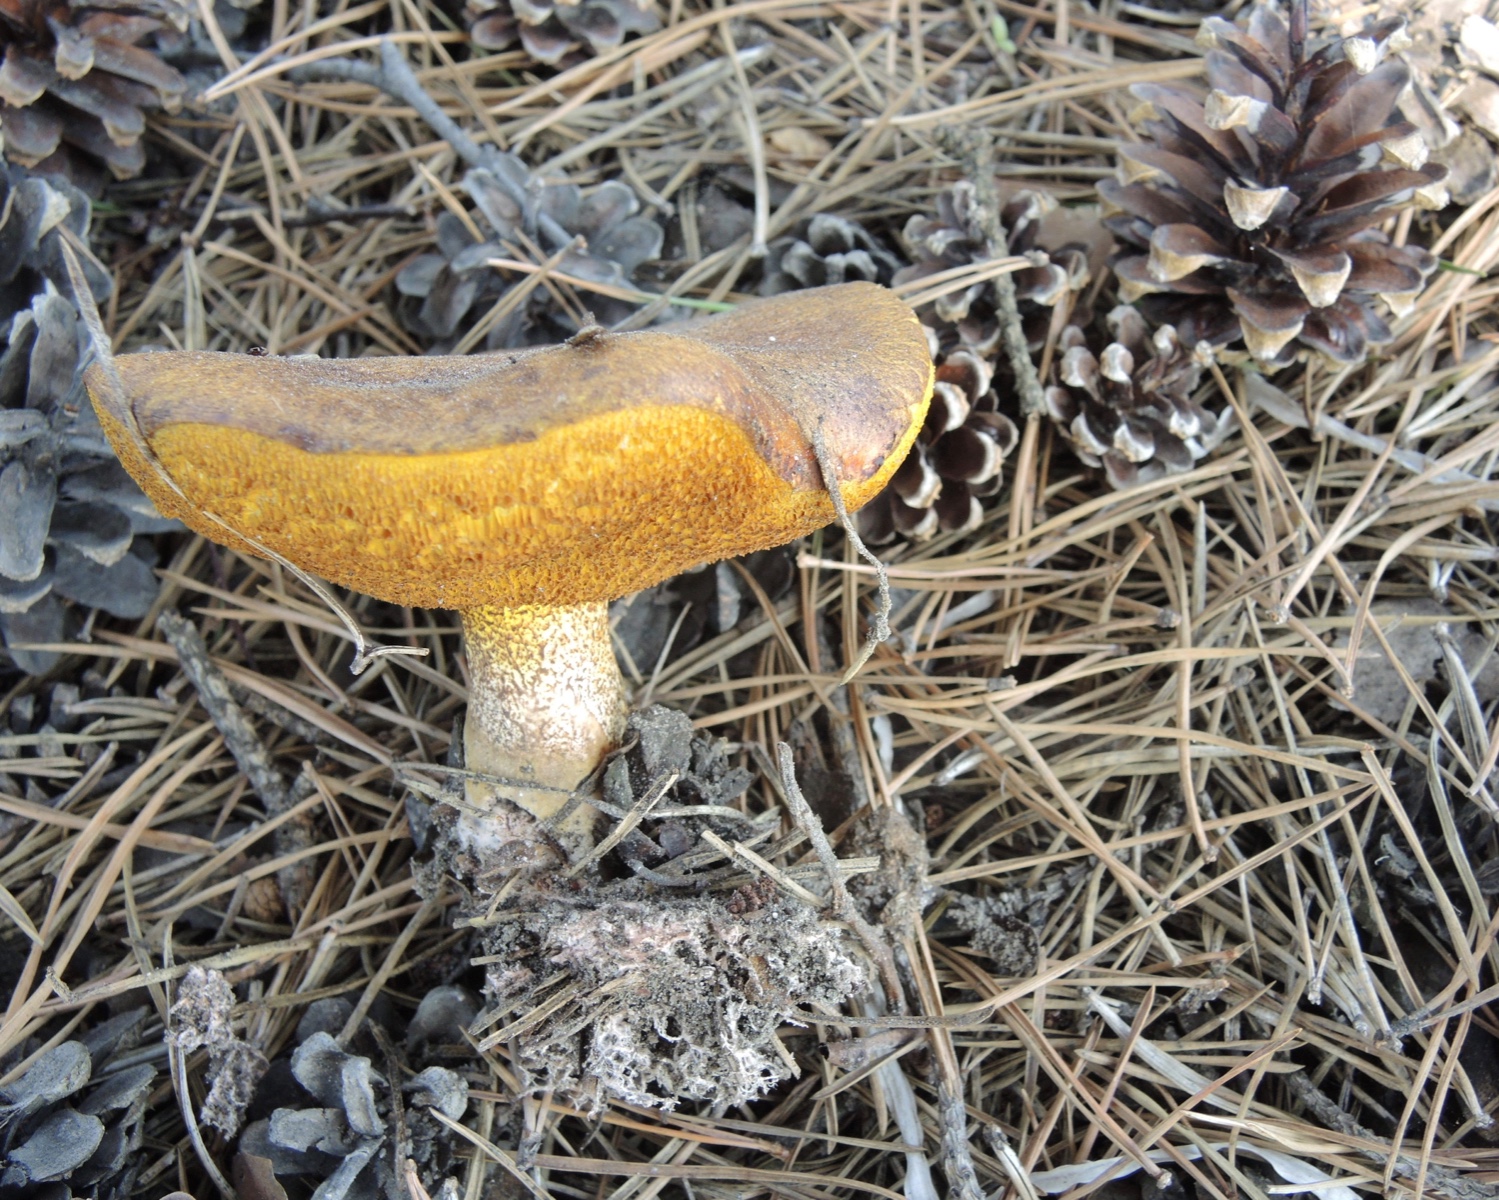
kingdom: Fungi
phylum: Basidiomycota
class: Agaricomycetes
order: Boletales
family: Suillaceae
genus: Suillus
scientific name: Suillus collinitus
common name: rosafodet slimrørhat
